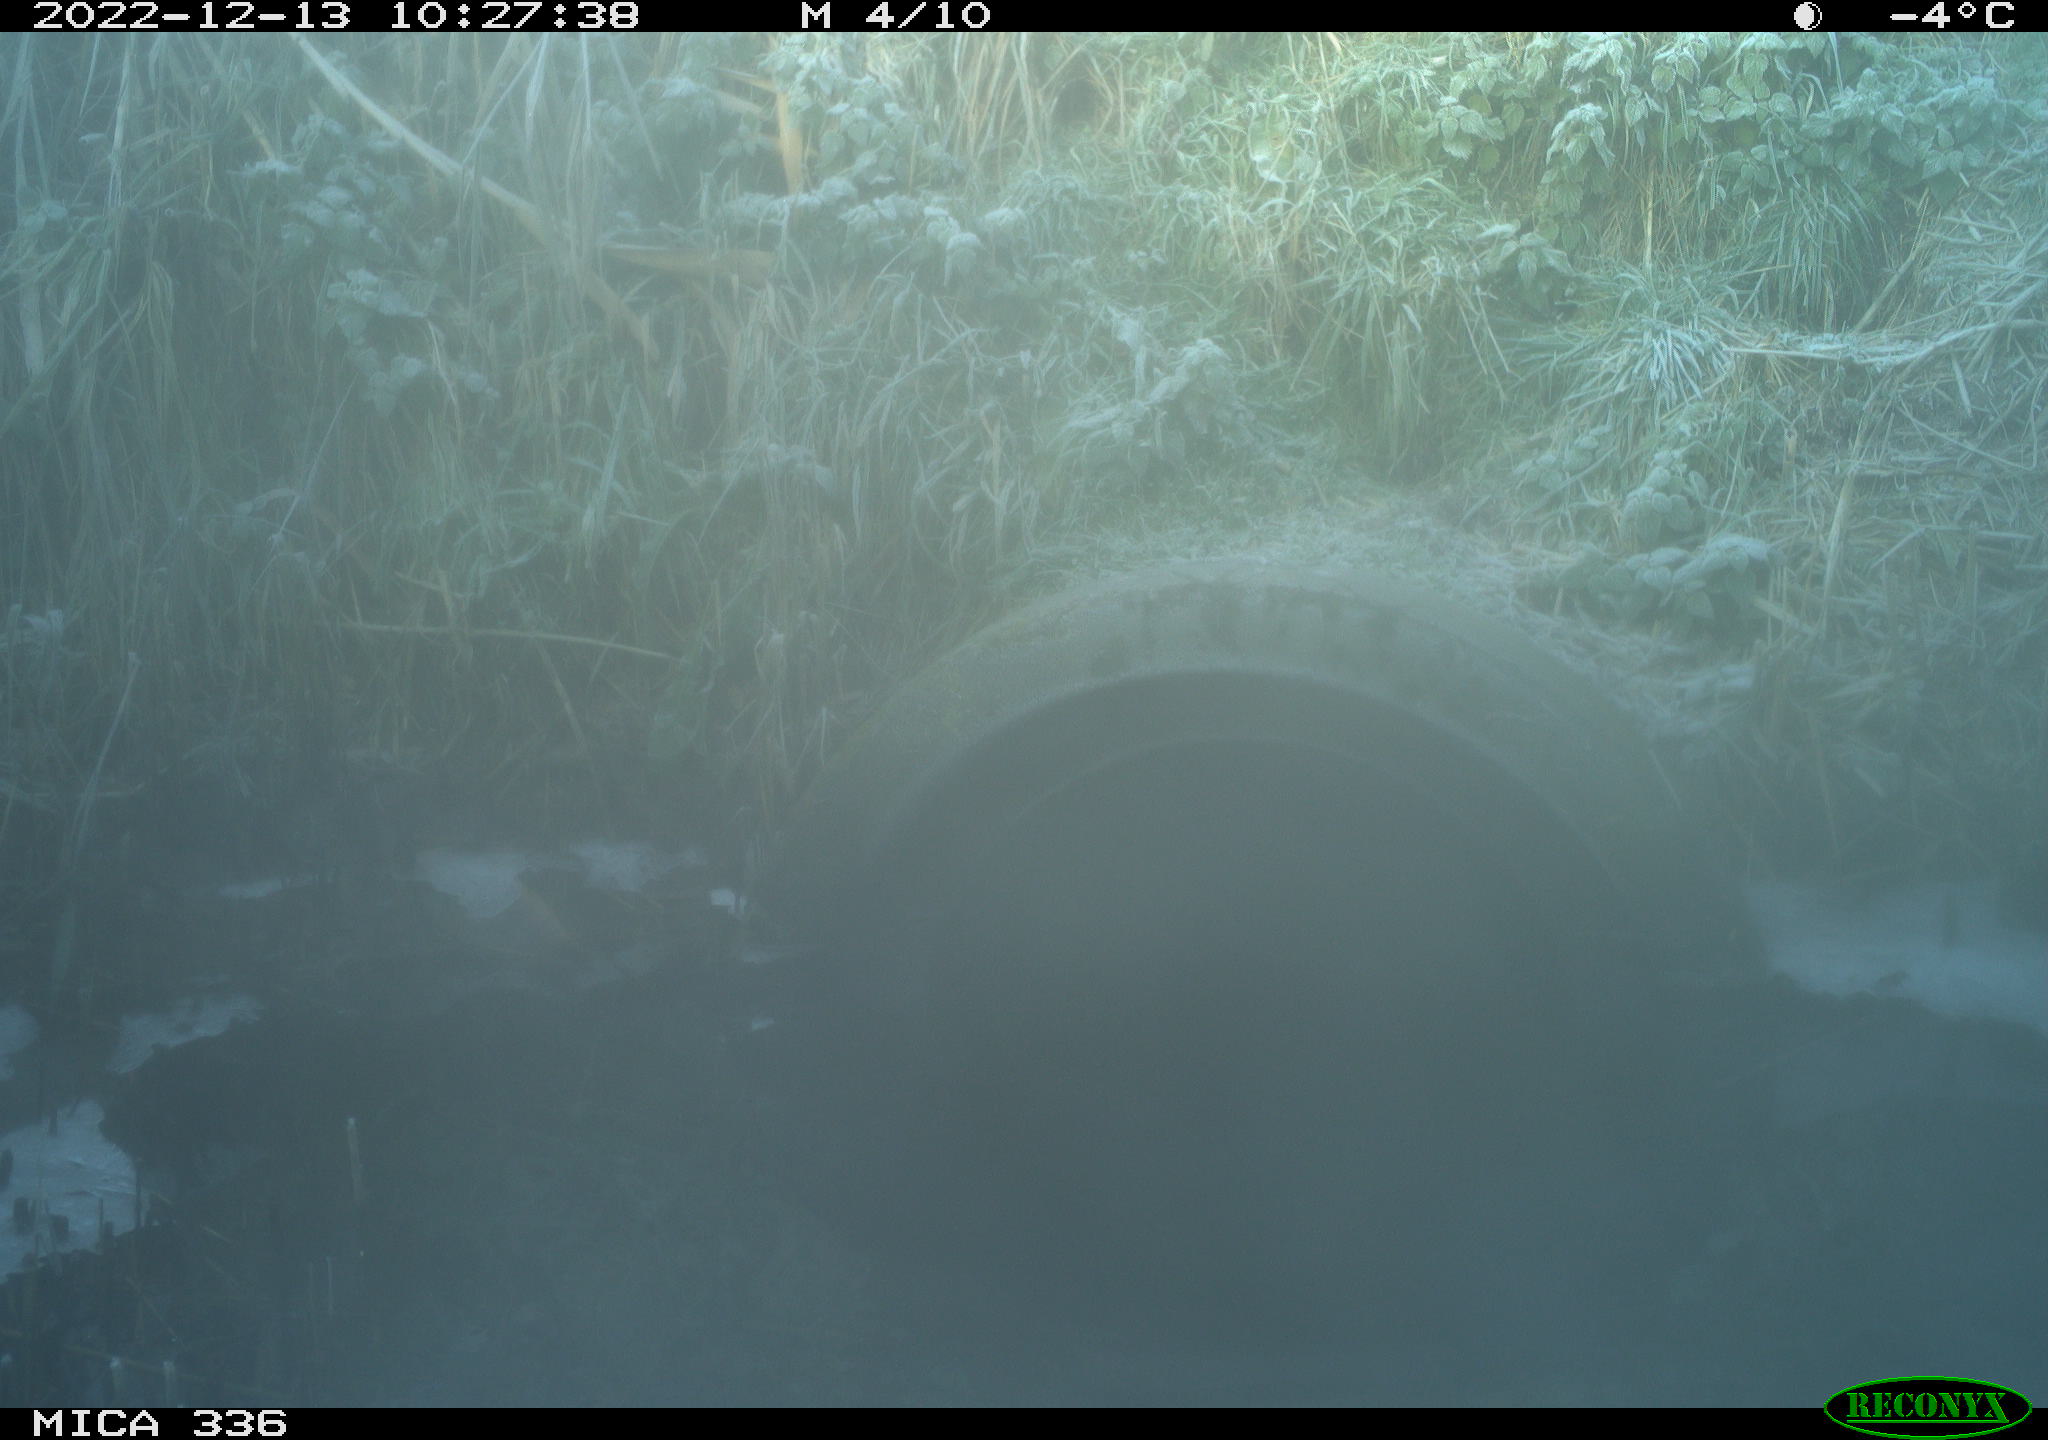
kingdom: Animalia
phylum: Chordata
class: Aves
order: Gruiformes
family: Rallidae
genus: Rallus
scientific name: Rallus aquaticus
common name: Water rail
